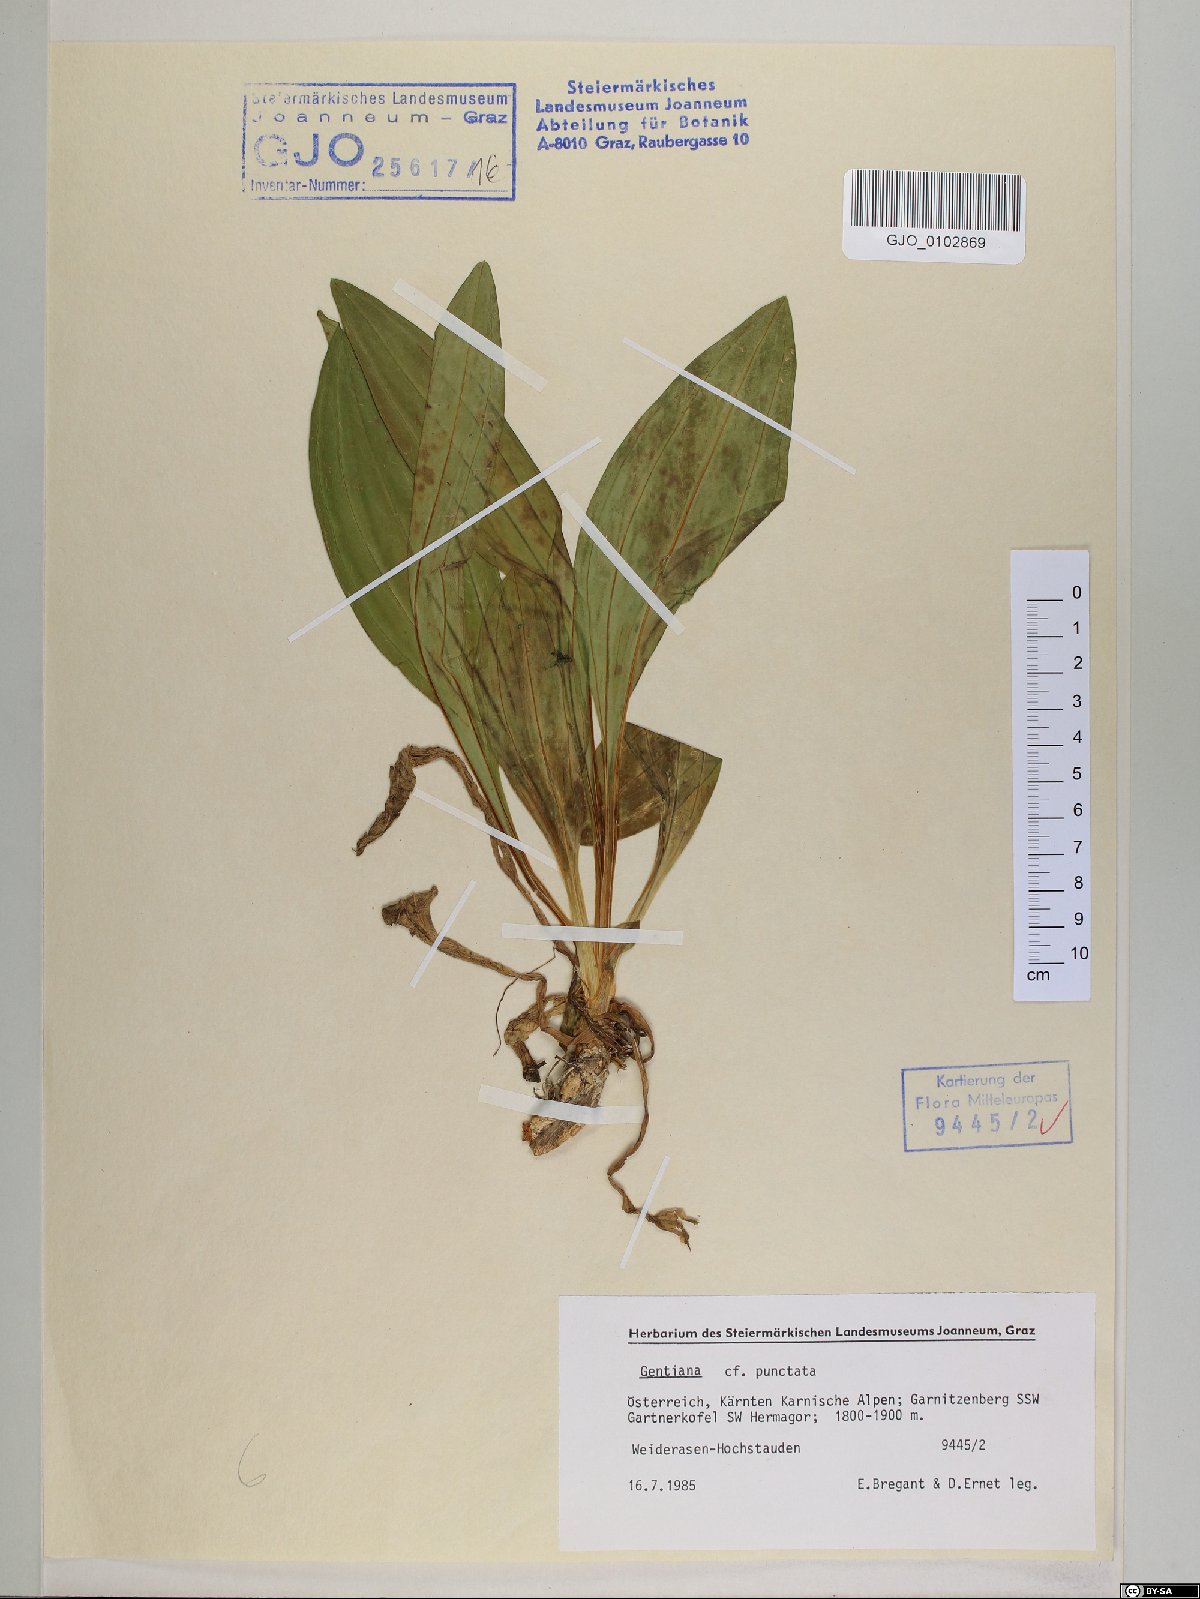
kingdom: Plantae
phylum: Tracheophyta
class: Magnoliopsida
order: Gentianales
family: Gentianaceae
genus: Gentiana
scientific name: Gentiana punctata
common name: Spotted gentian
